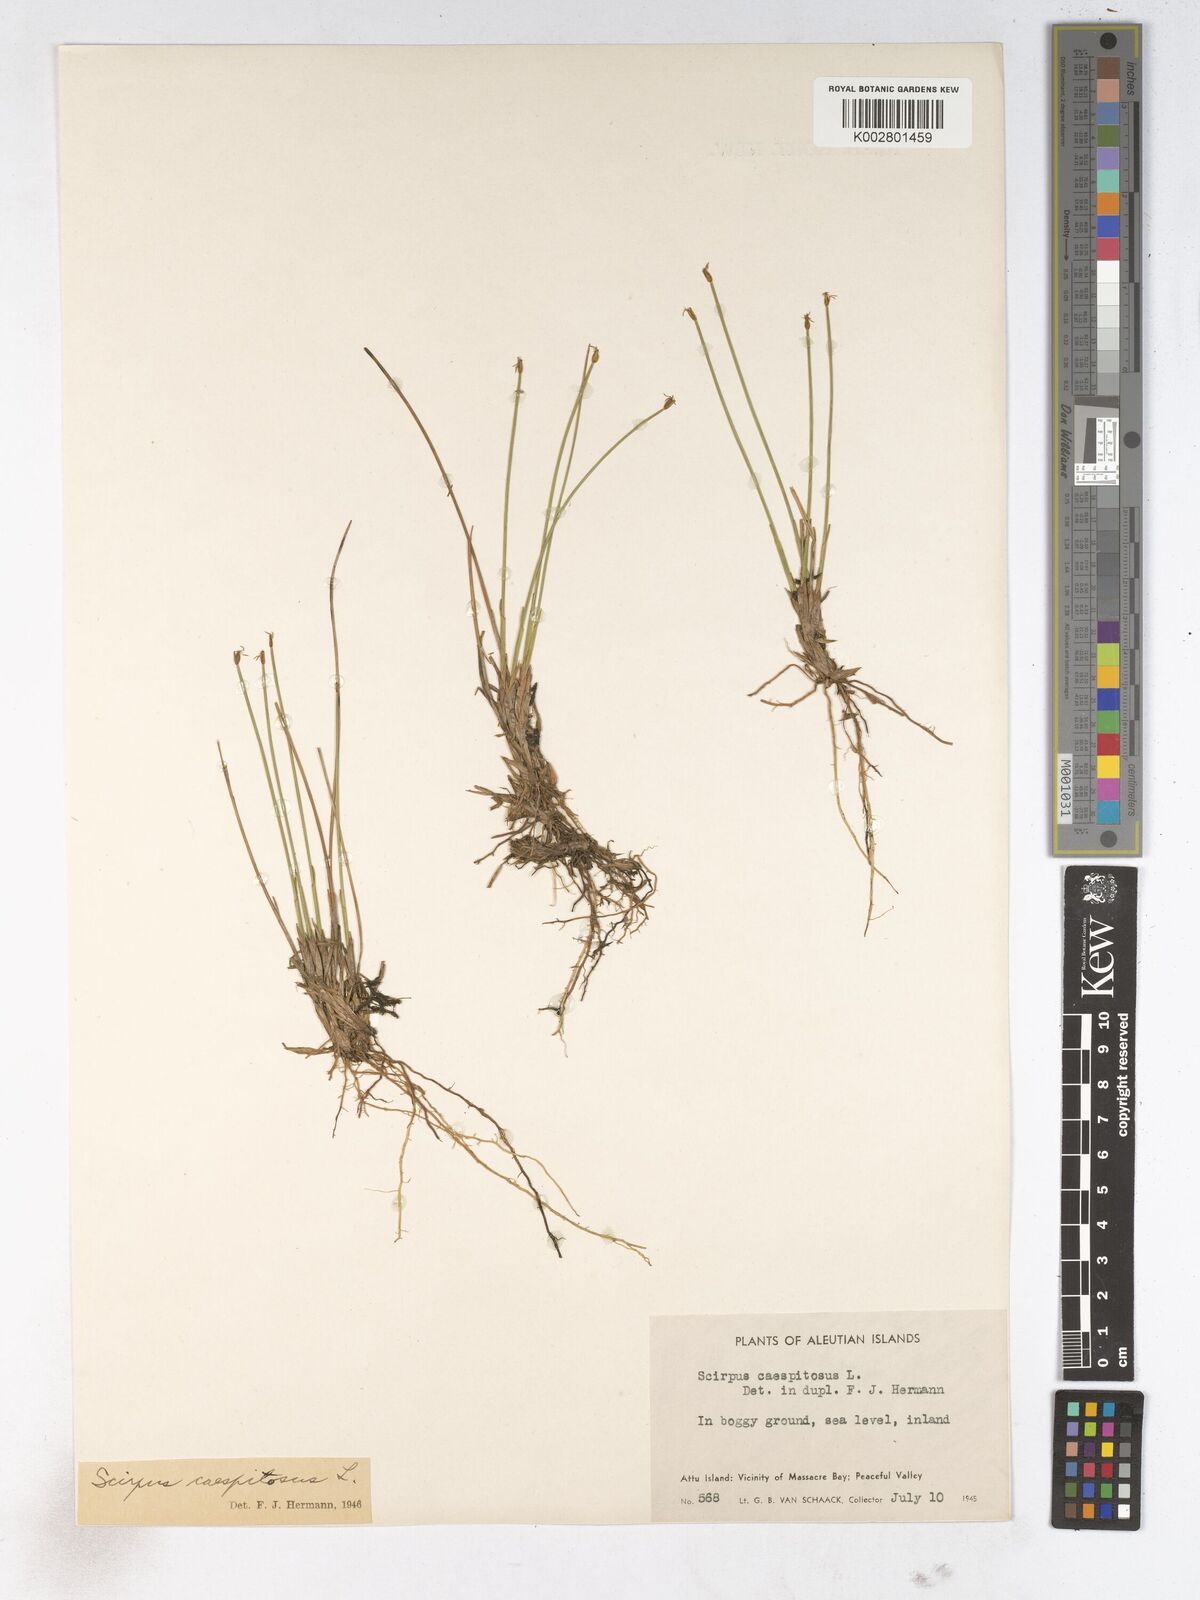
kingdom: Plantae
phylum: Tracheophyta
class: Liliopsida
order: Poales
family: Cyperaceae
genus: Trichophorum
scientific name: Trichophorum cespitosum
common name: Cespitose bulrush
